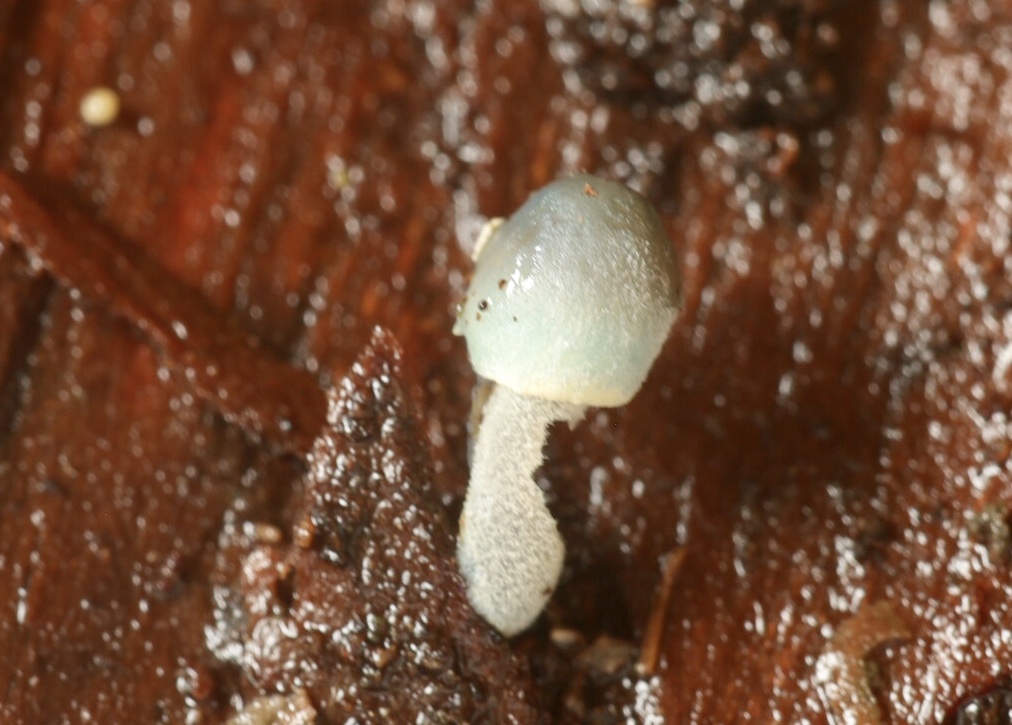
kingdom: Fungi
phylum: Basidiomycota
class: Agaricomycetes
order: Agaricales
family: Mycenaceae
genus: Mycena
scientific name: Mycena amicta
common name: iris-huesvamp
